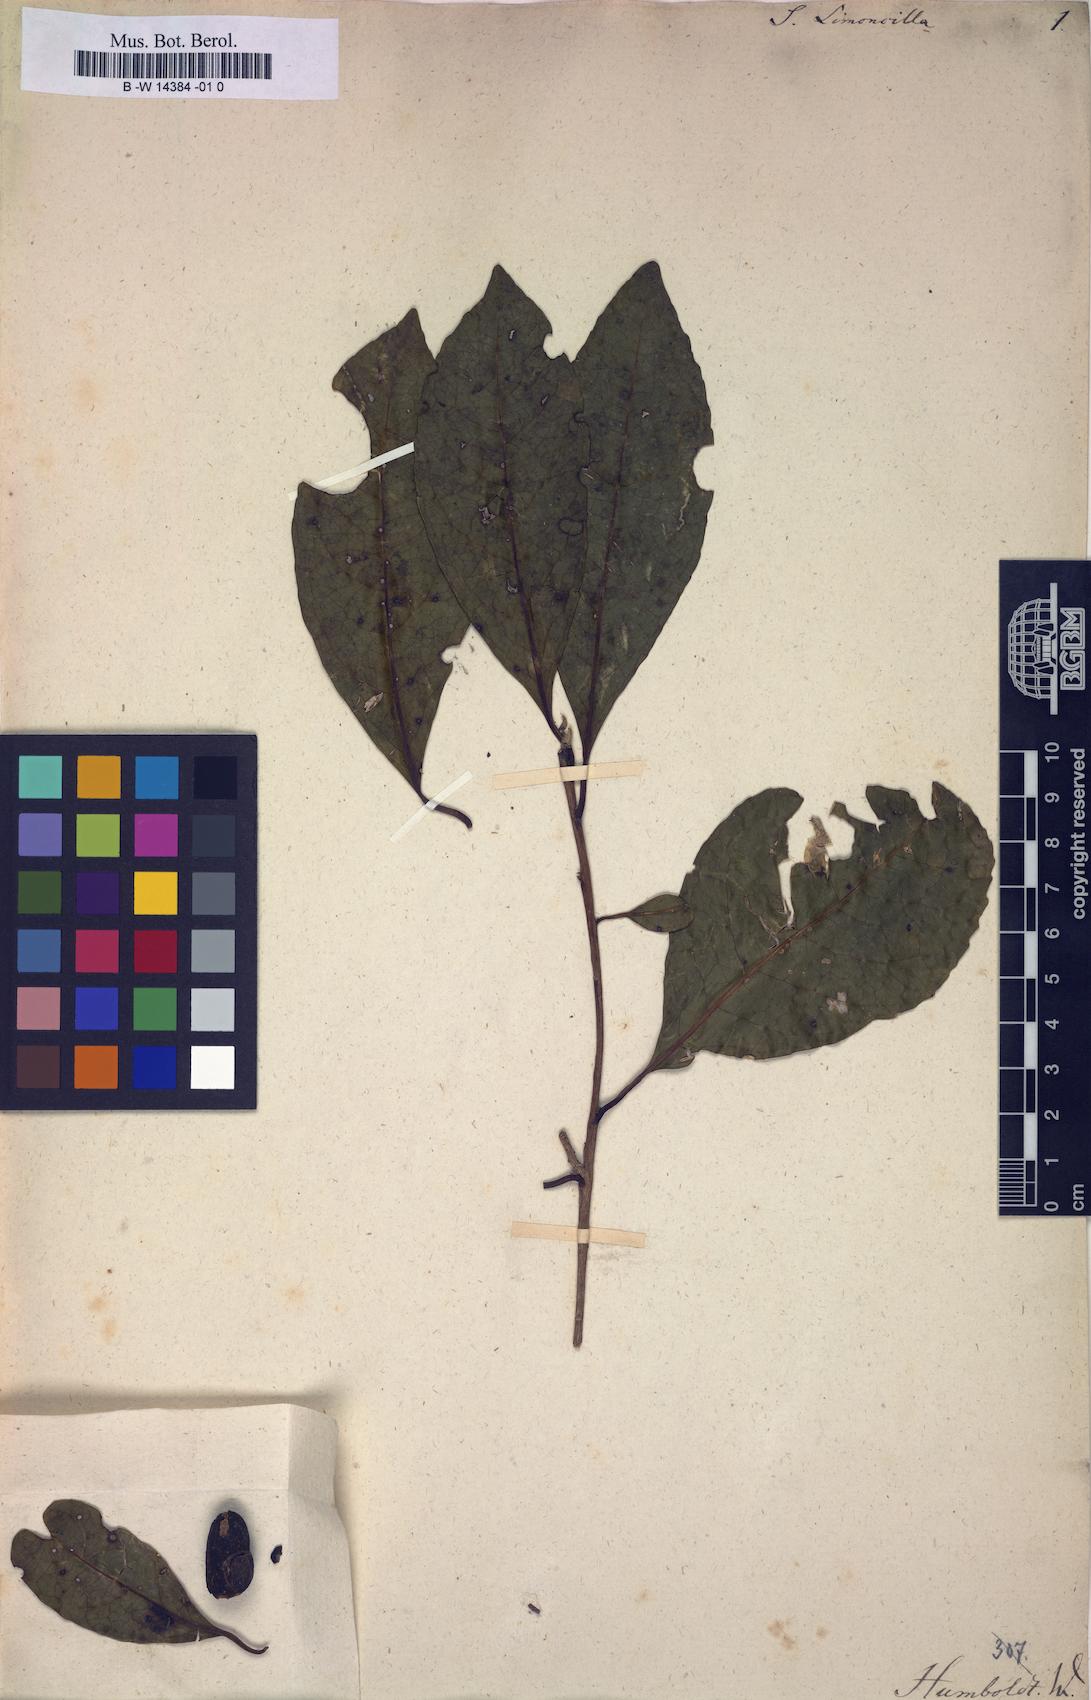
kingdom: Plantae
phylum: Tracheophyta
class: Magnoliopsida
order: Ericales
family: Symplocaceae
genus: Symplocos
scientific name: Symplocos limoncillo
